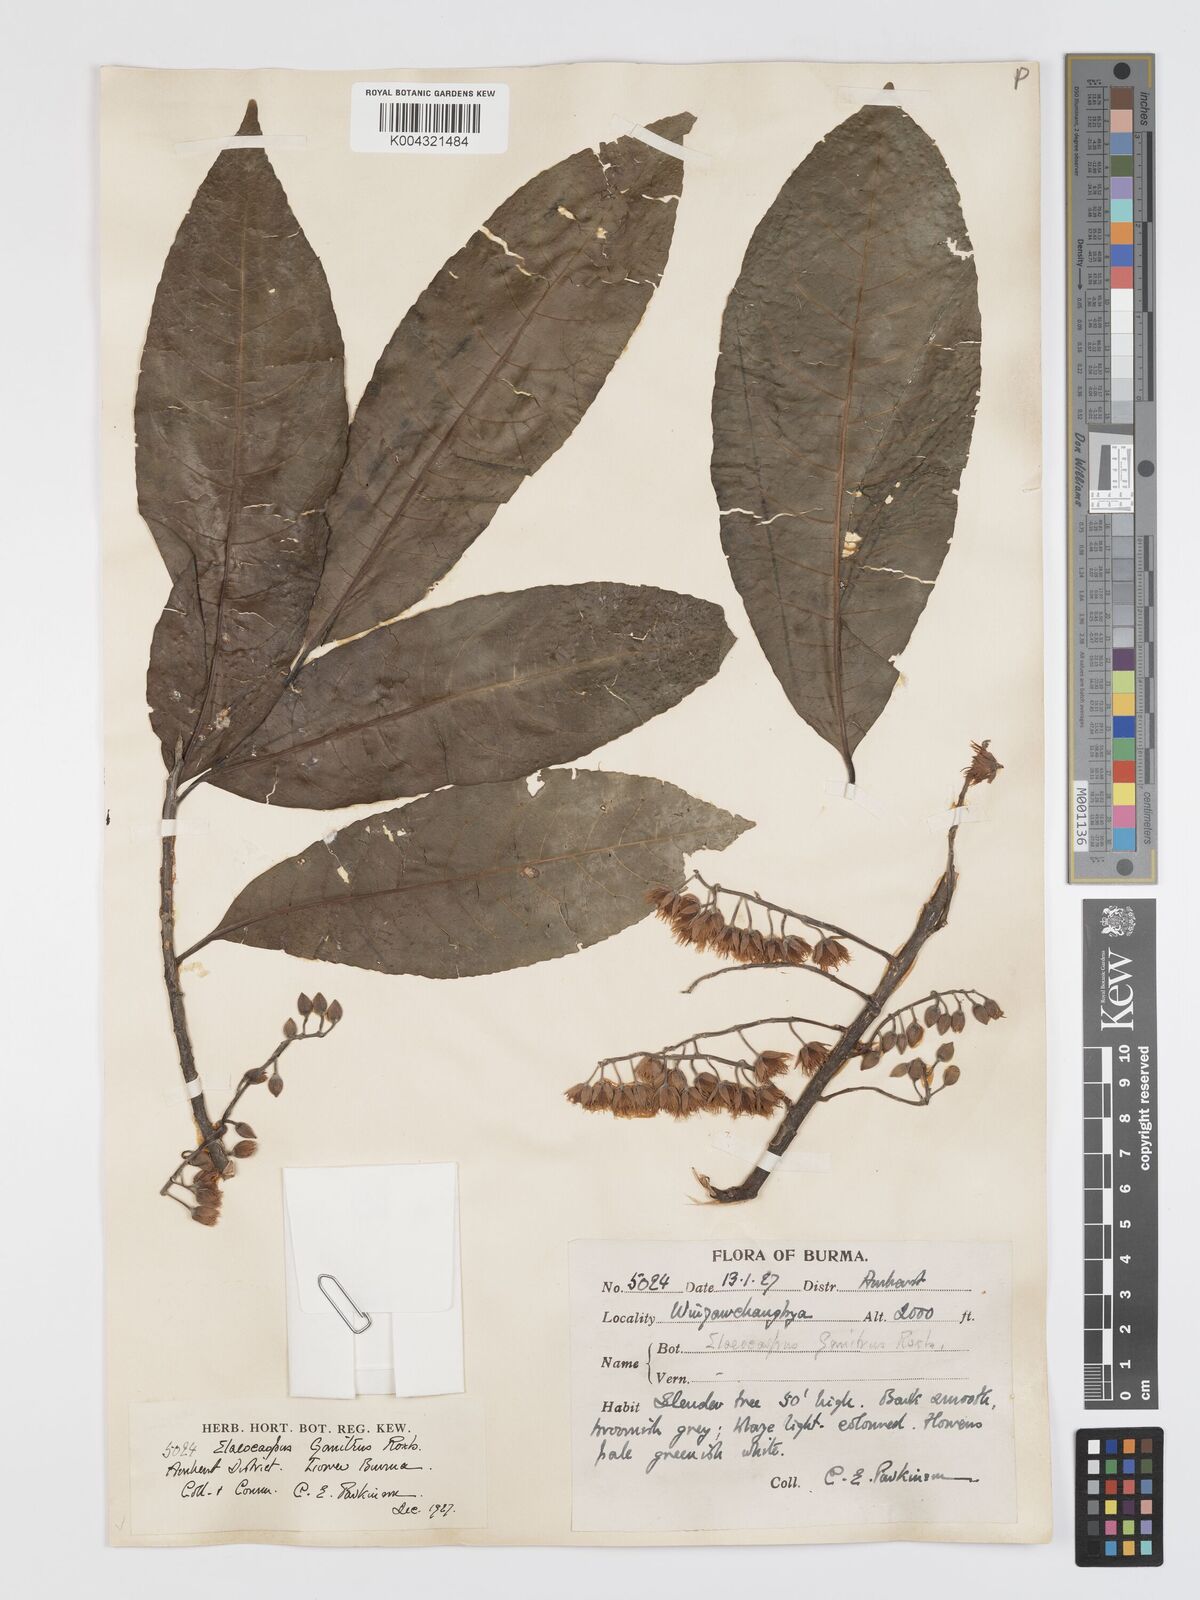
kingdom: Plantae
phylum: Tracheophyta
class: Magnoliopsida
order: Oxalidales
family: Elaeocarpaceae
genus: Elaeocarpus
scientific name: Elaeocarpus sphaericus
